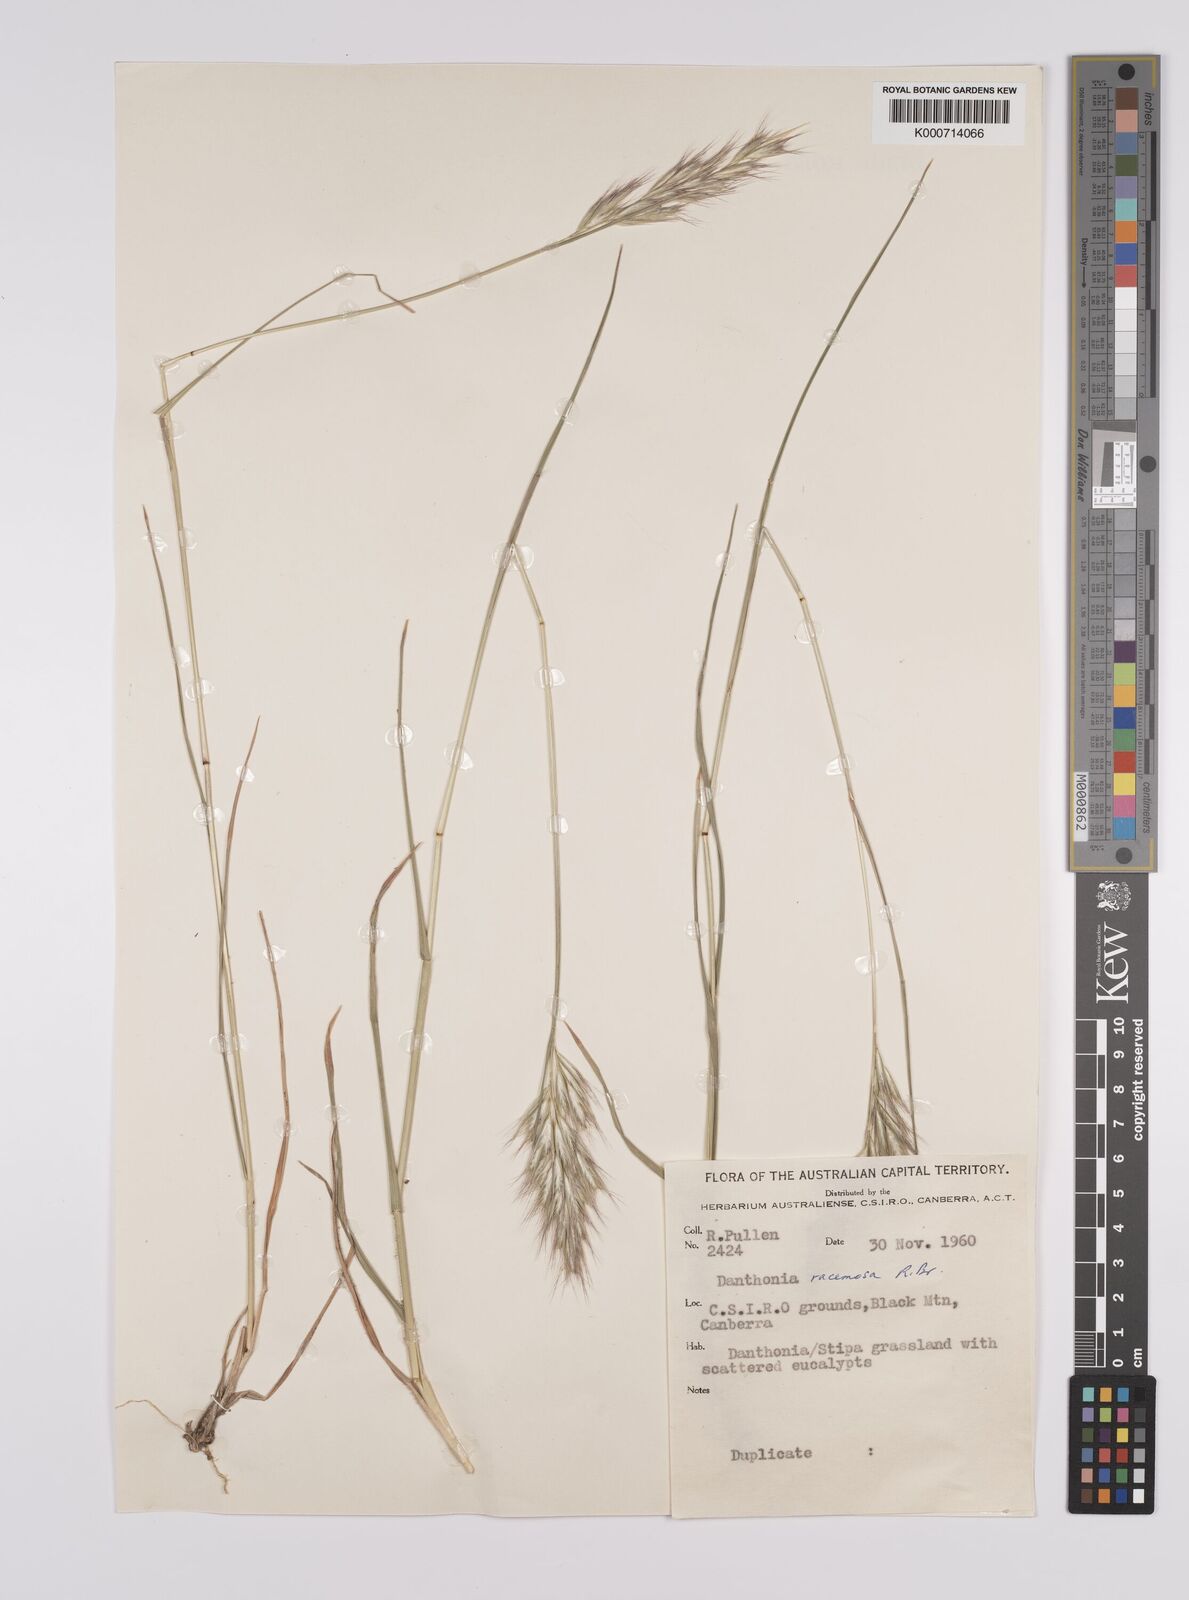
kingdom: Plantae
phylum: Tracheophyta
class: Liliopsida
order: Poales
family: Poaceae
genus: Rytidosperma
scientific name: Rytidosperma racemosum
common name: Wallaby-grass
